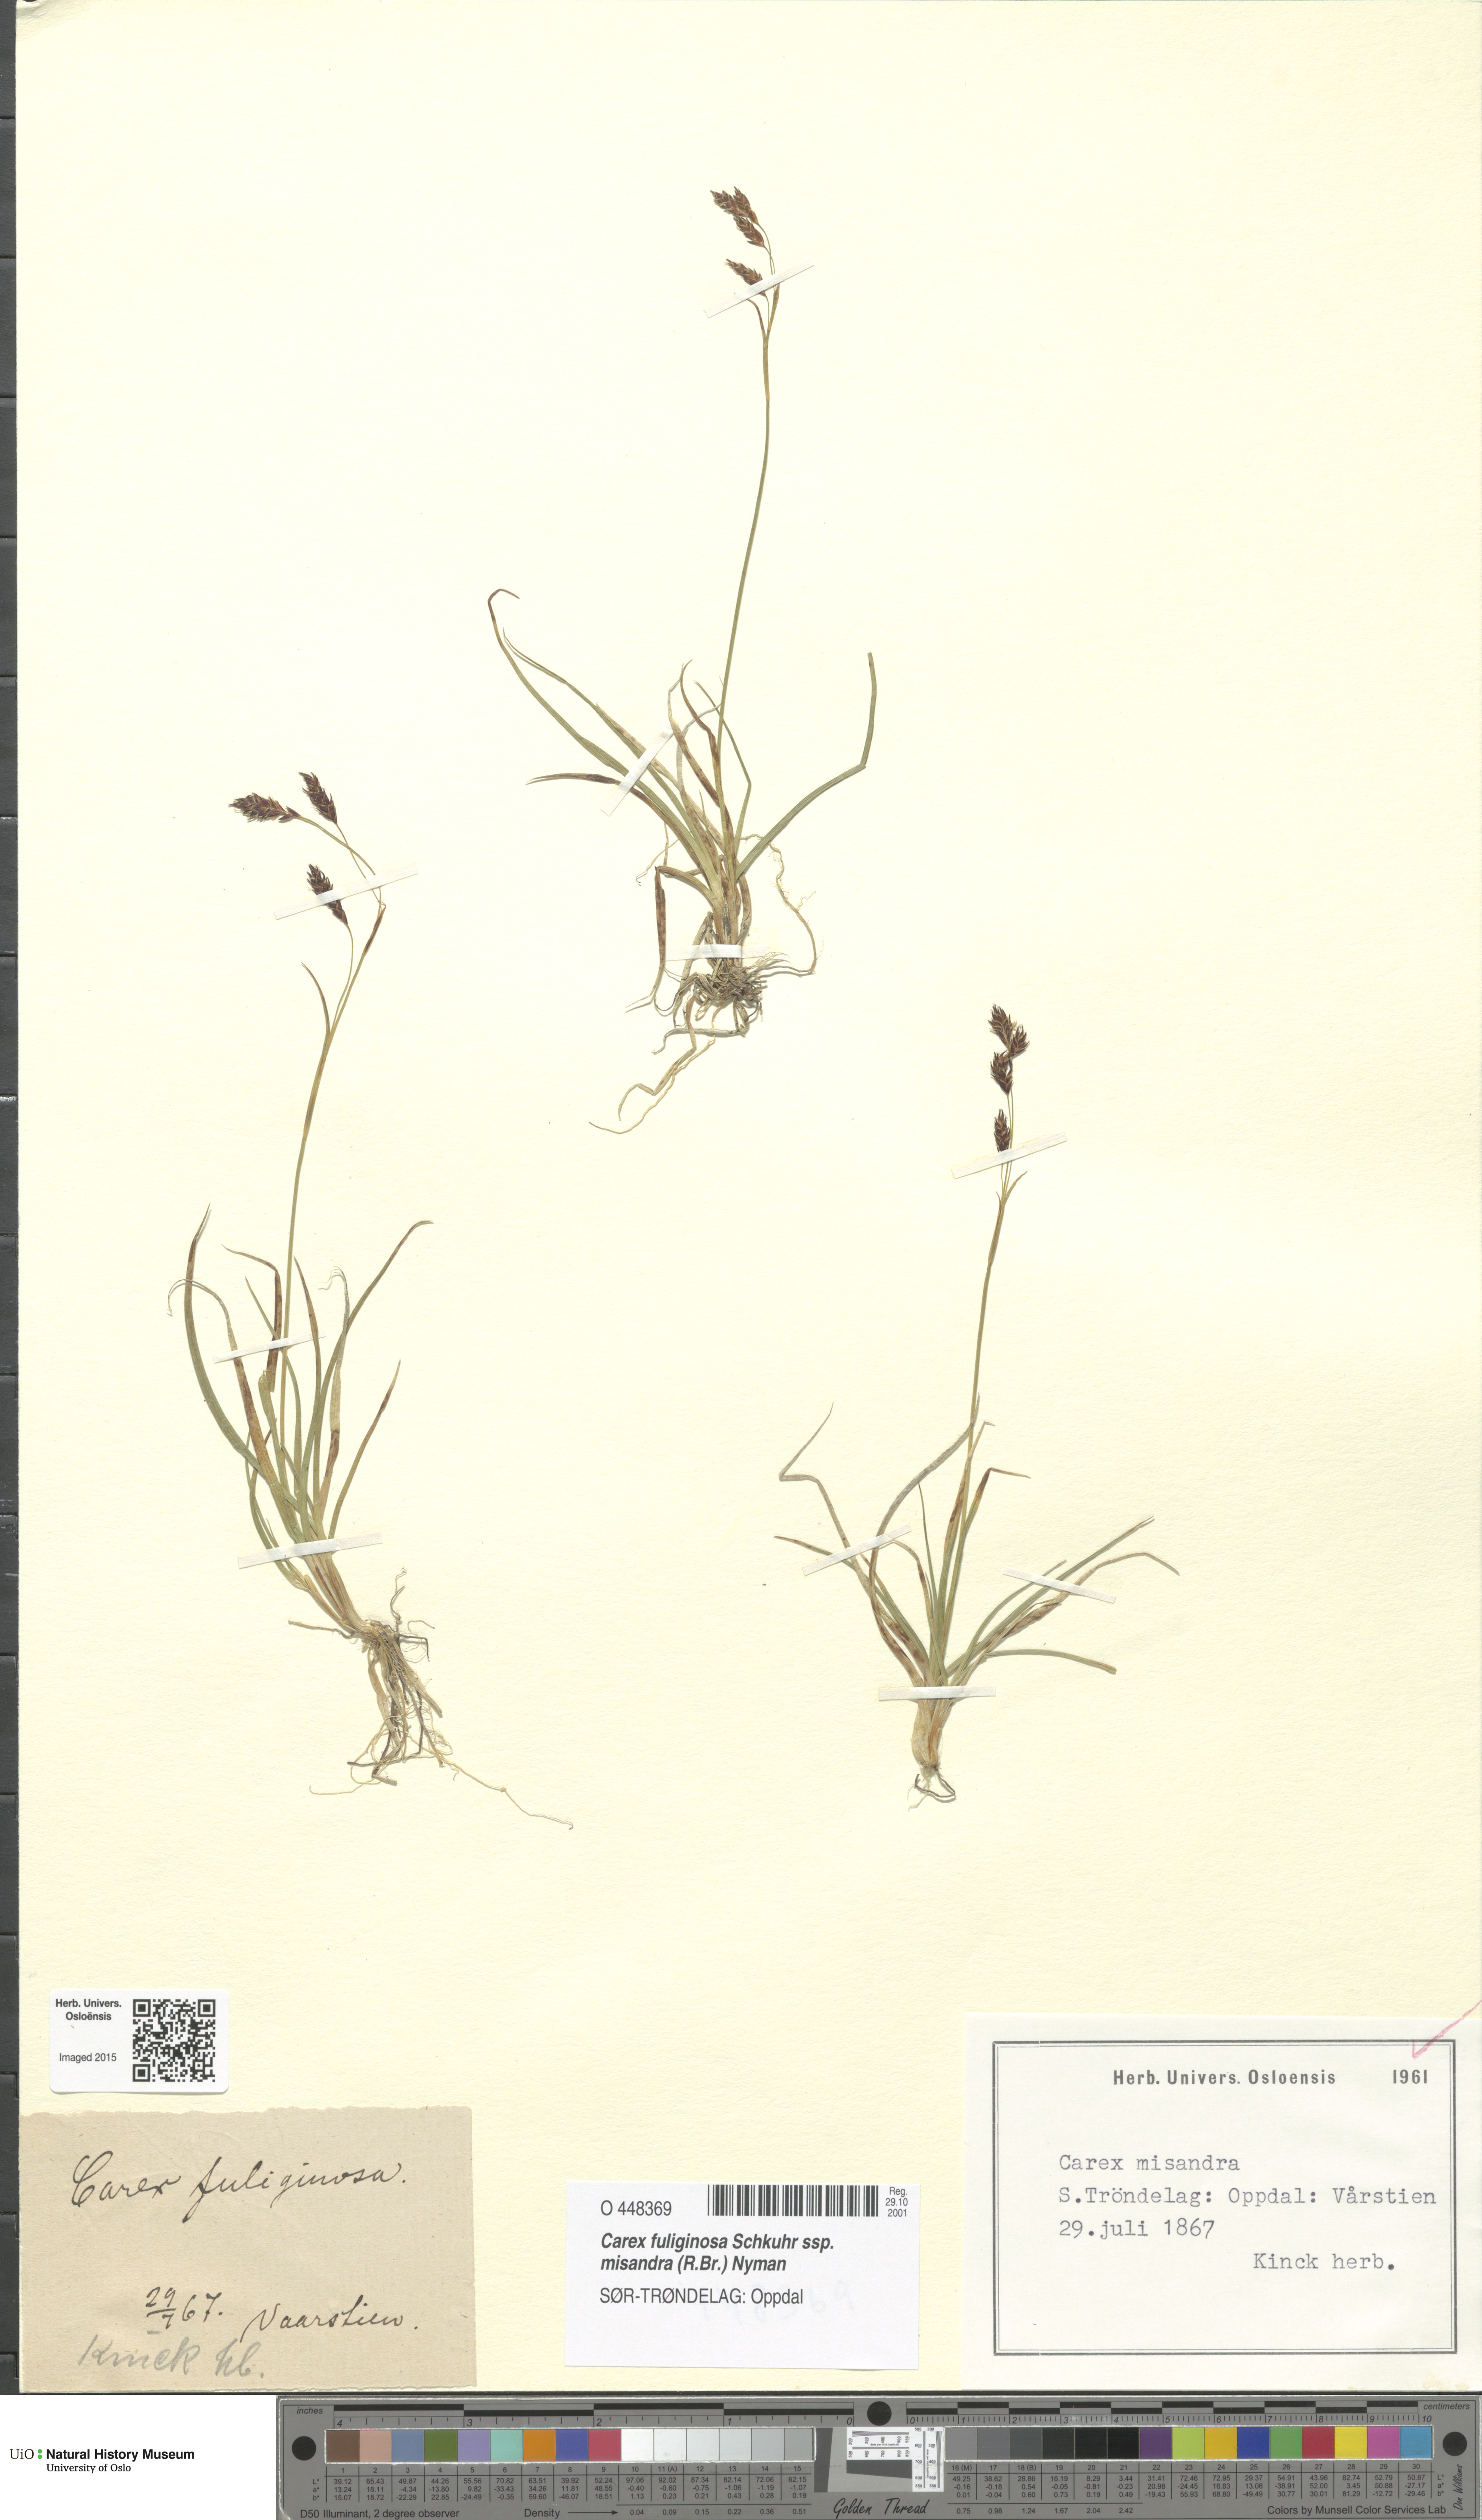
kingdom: Plantae
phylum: Tracheophyta
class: Liliopsida
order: Poales
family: Cyperaceae
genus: Carex
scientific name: Carex fuliginosa
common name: Few-flowered sedge
